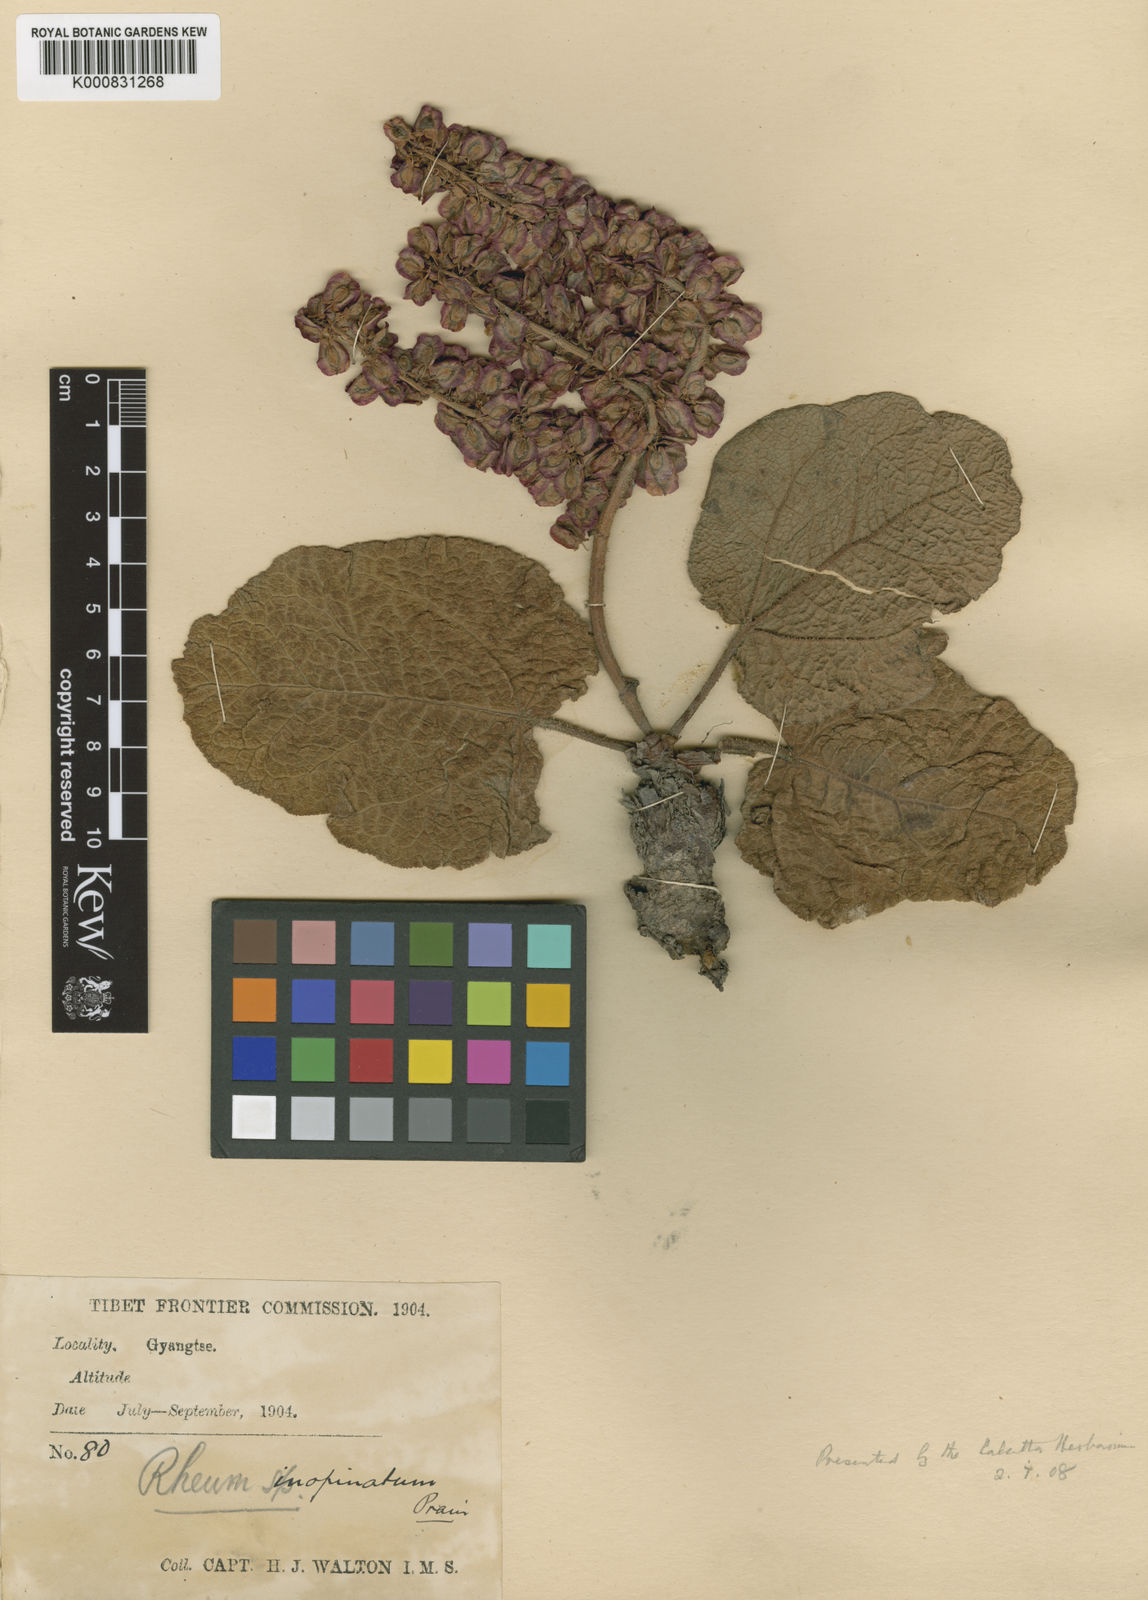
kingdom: Plantae
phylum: Tracheophyta
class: Magnoliopsida
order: Caryophyllales
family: Polygonaceae
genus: Rheum
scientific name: Rheum inopinatum
